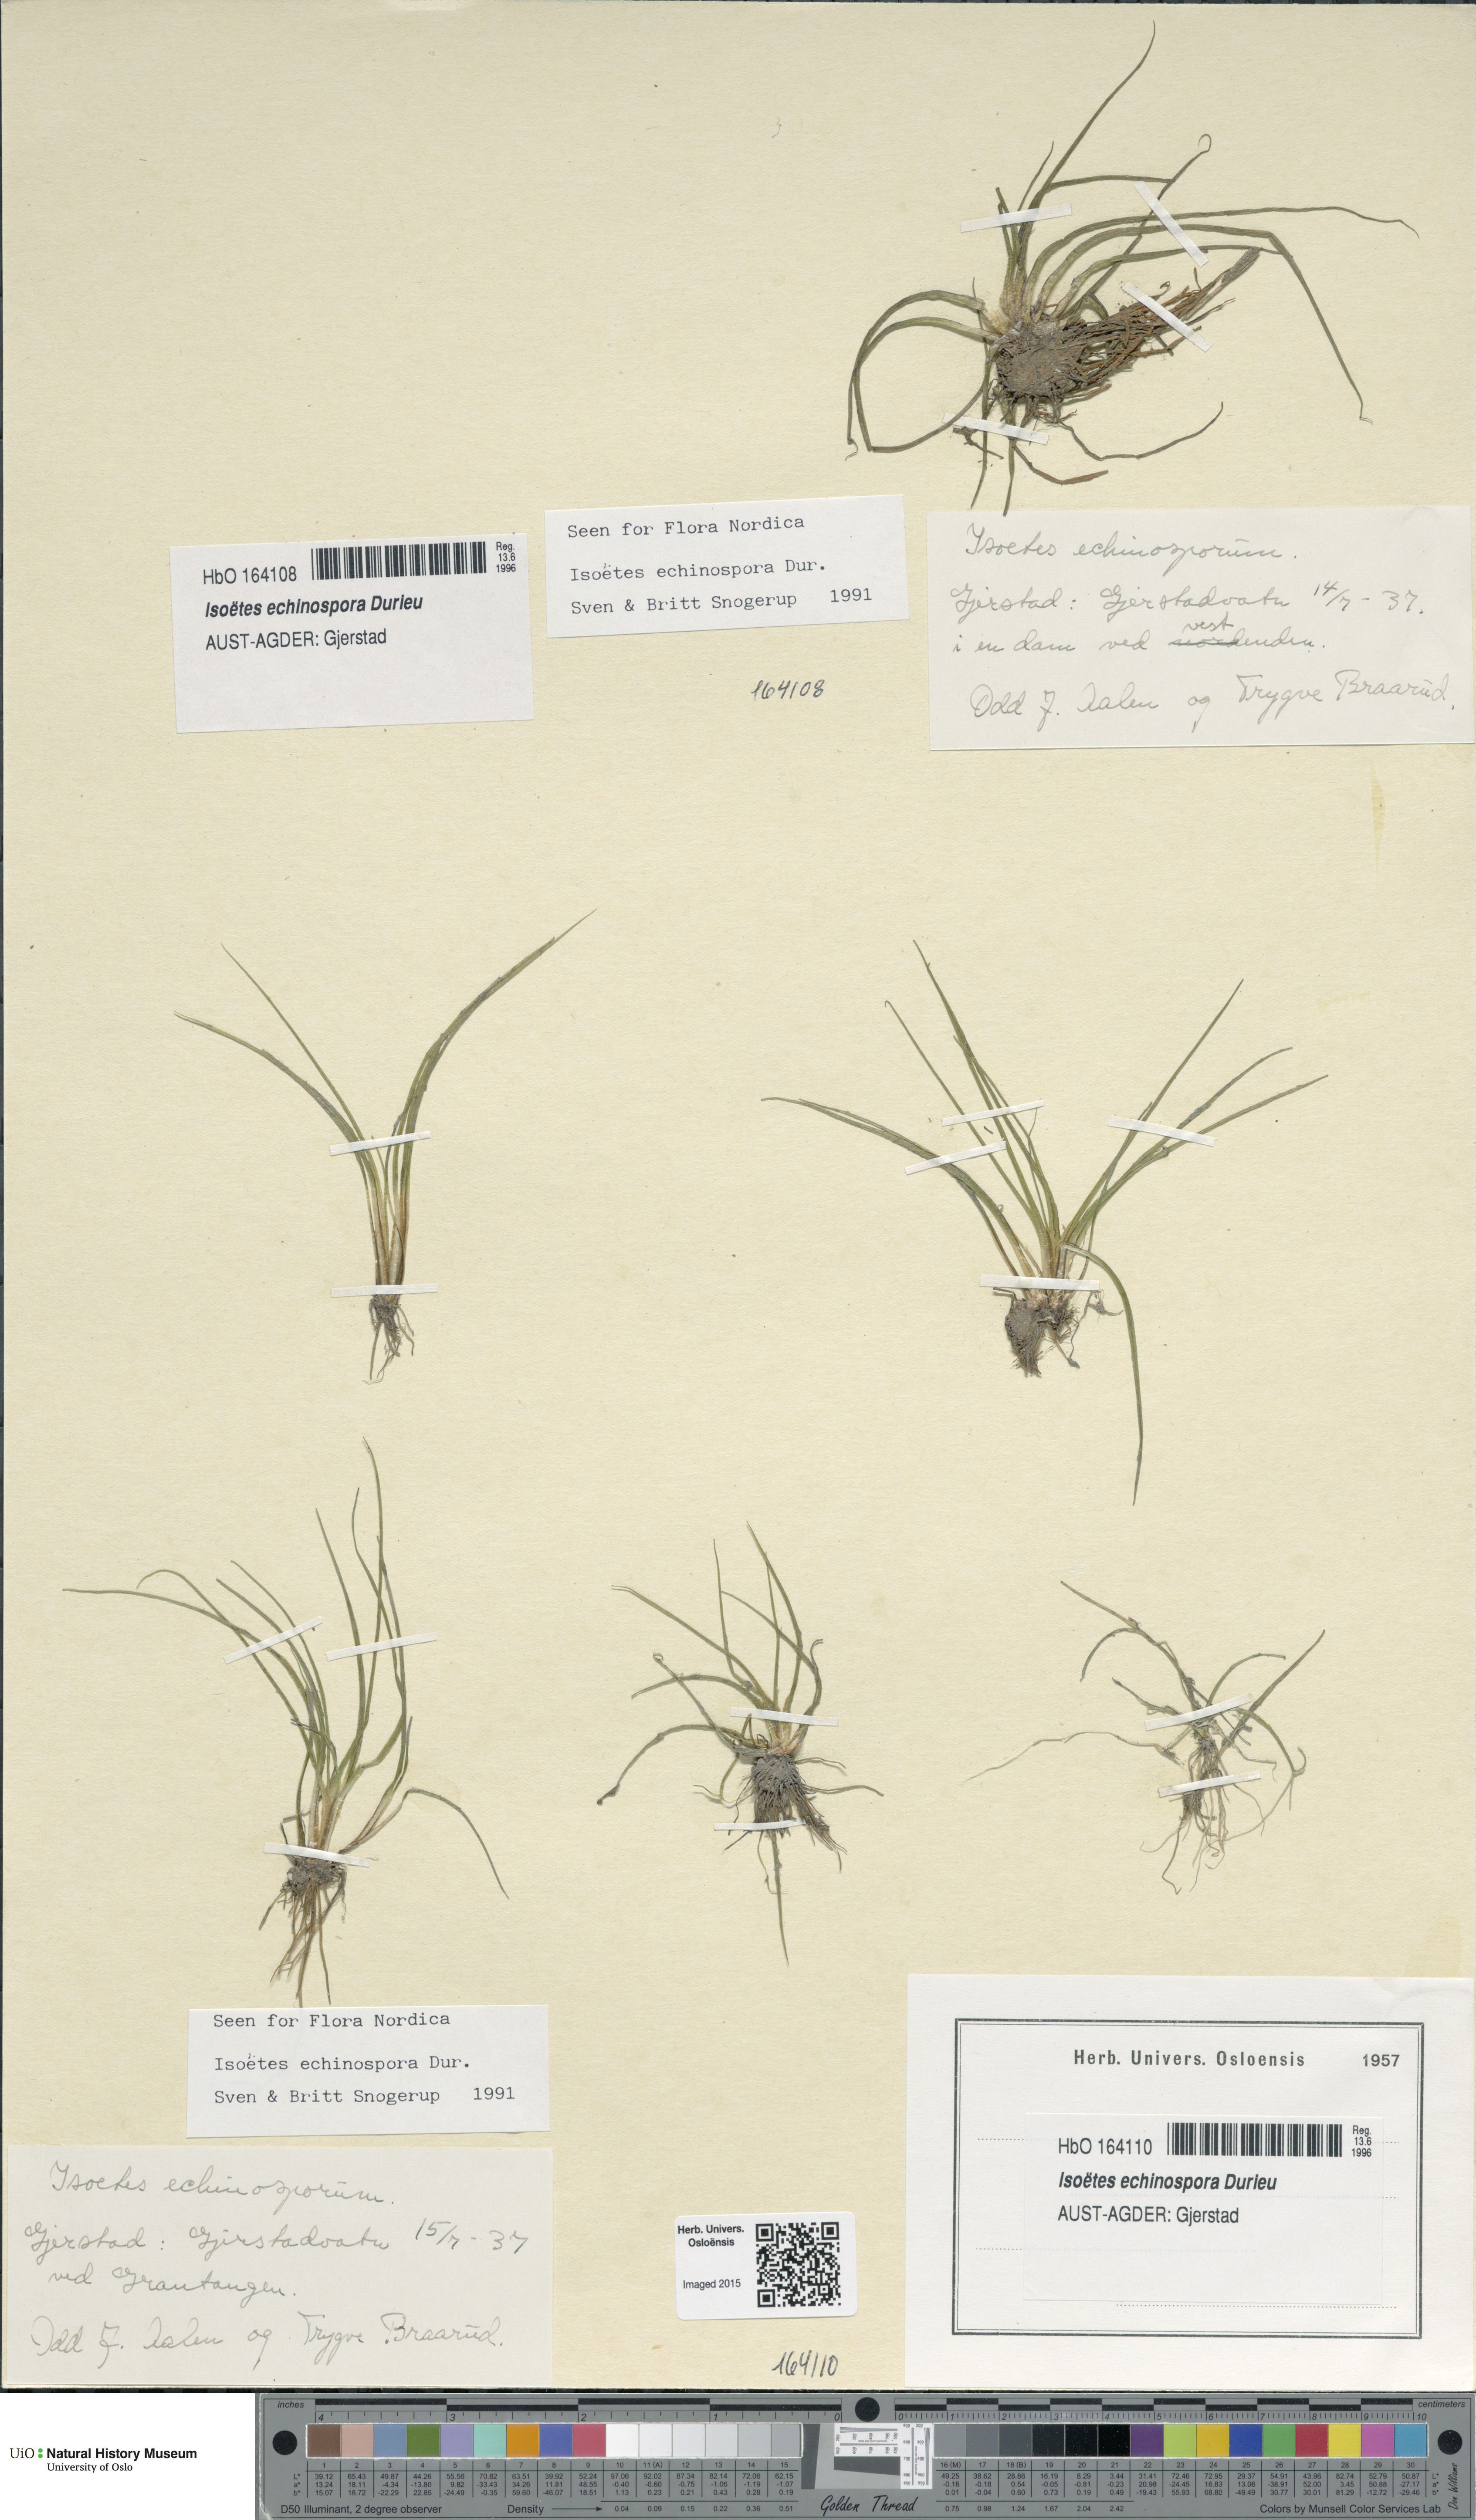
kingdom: Plantae
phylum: Tracheophyta
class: Lycopodiopsida
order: Isoetales
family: Isoetaceae
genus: Isoetes
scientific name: Isoetes echinospora
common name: Spring quillwort
